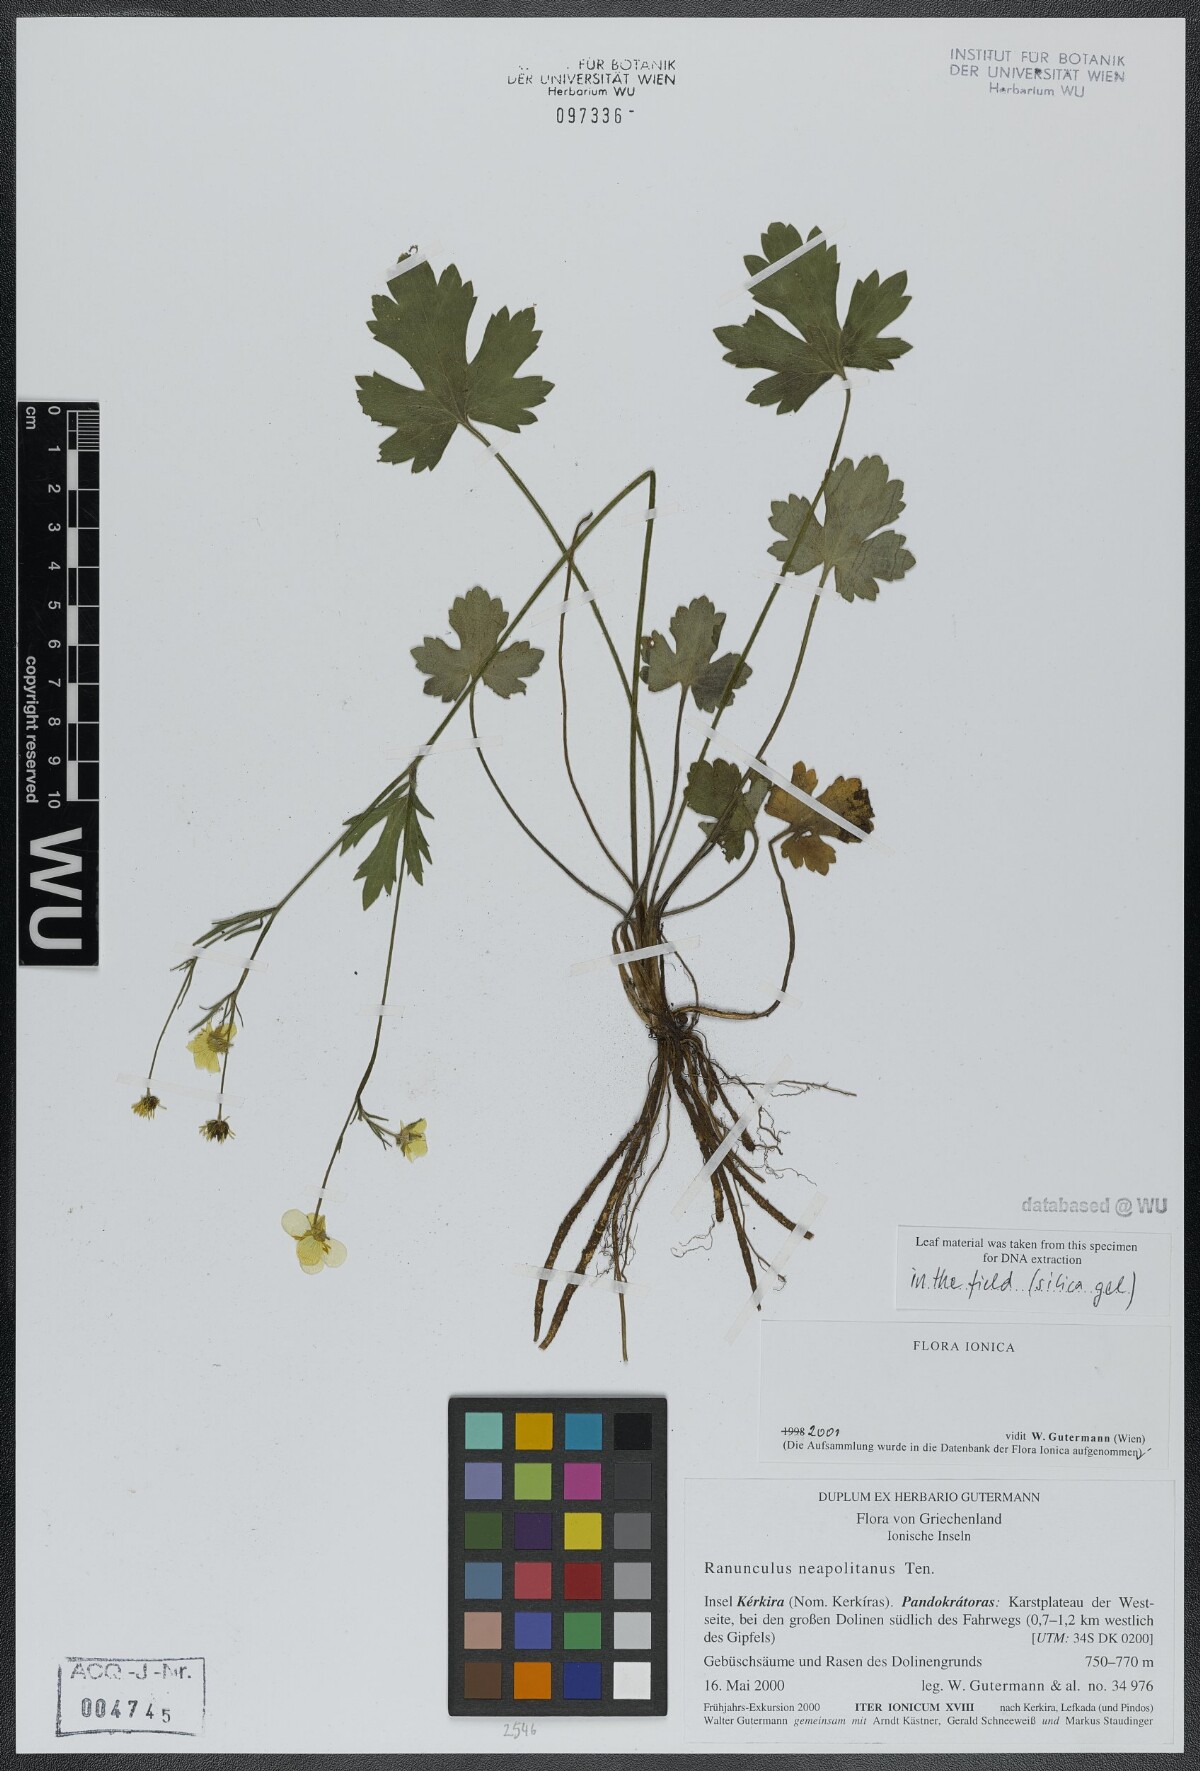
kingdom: Plantae
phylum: Tracheophyta
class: Magnoliopsida
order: Ranunculales
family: Ranunculaceae
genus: Ranunculus
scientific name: Ranunculus neapolitanus
